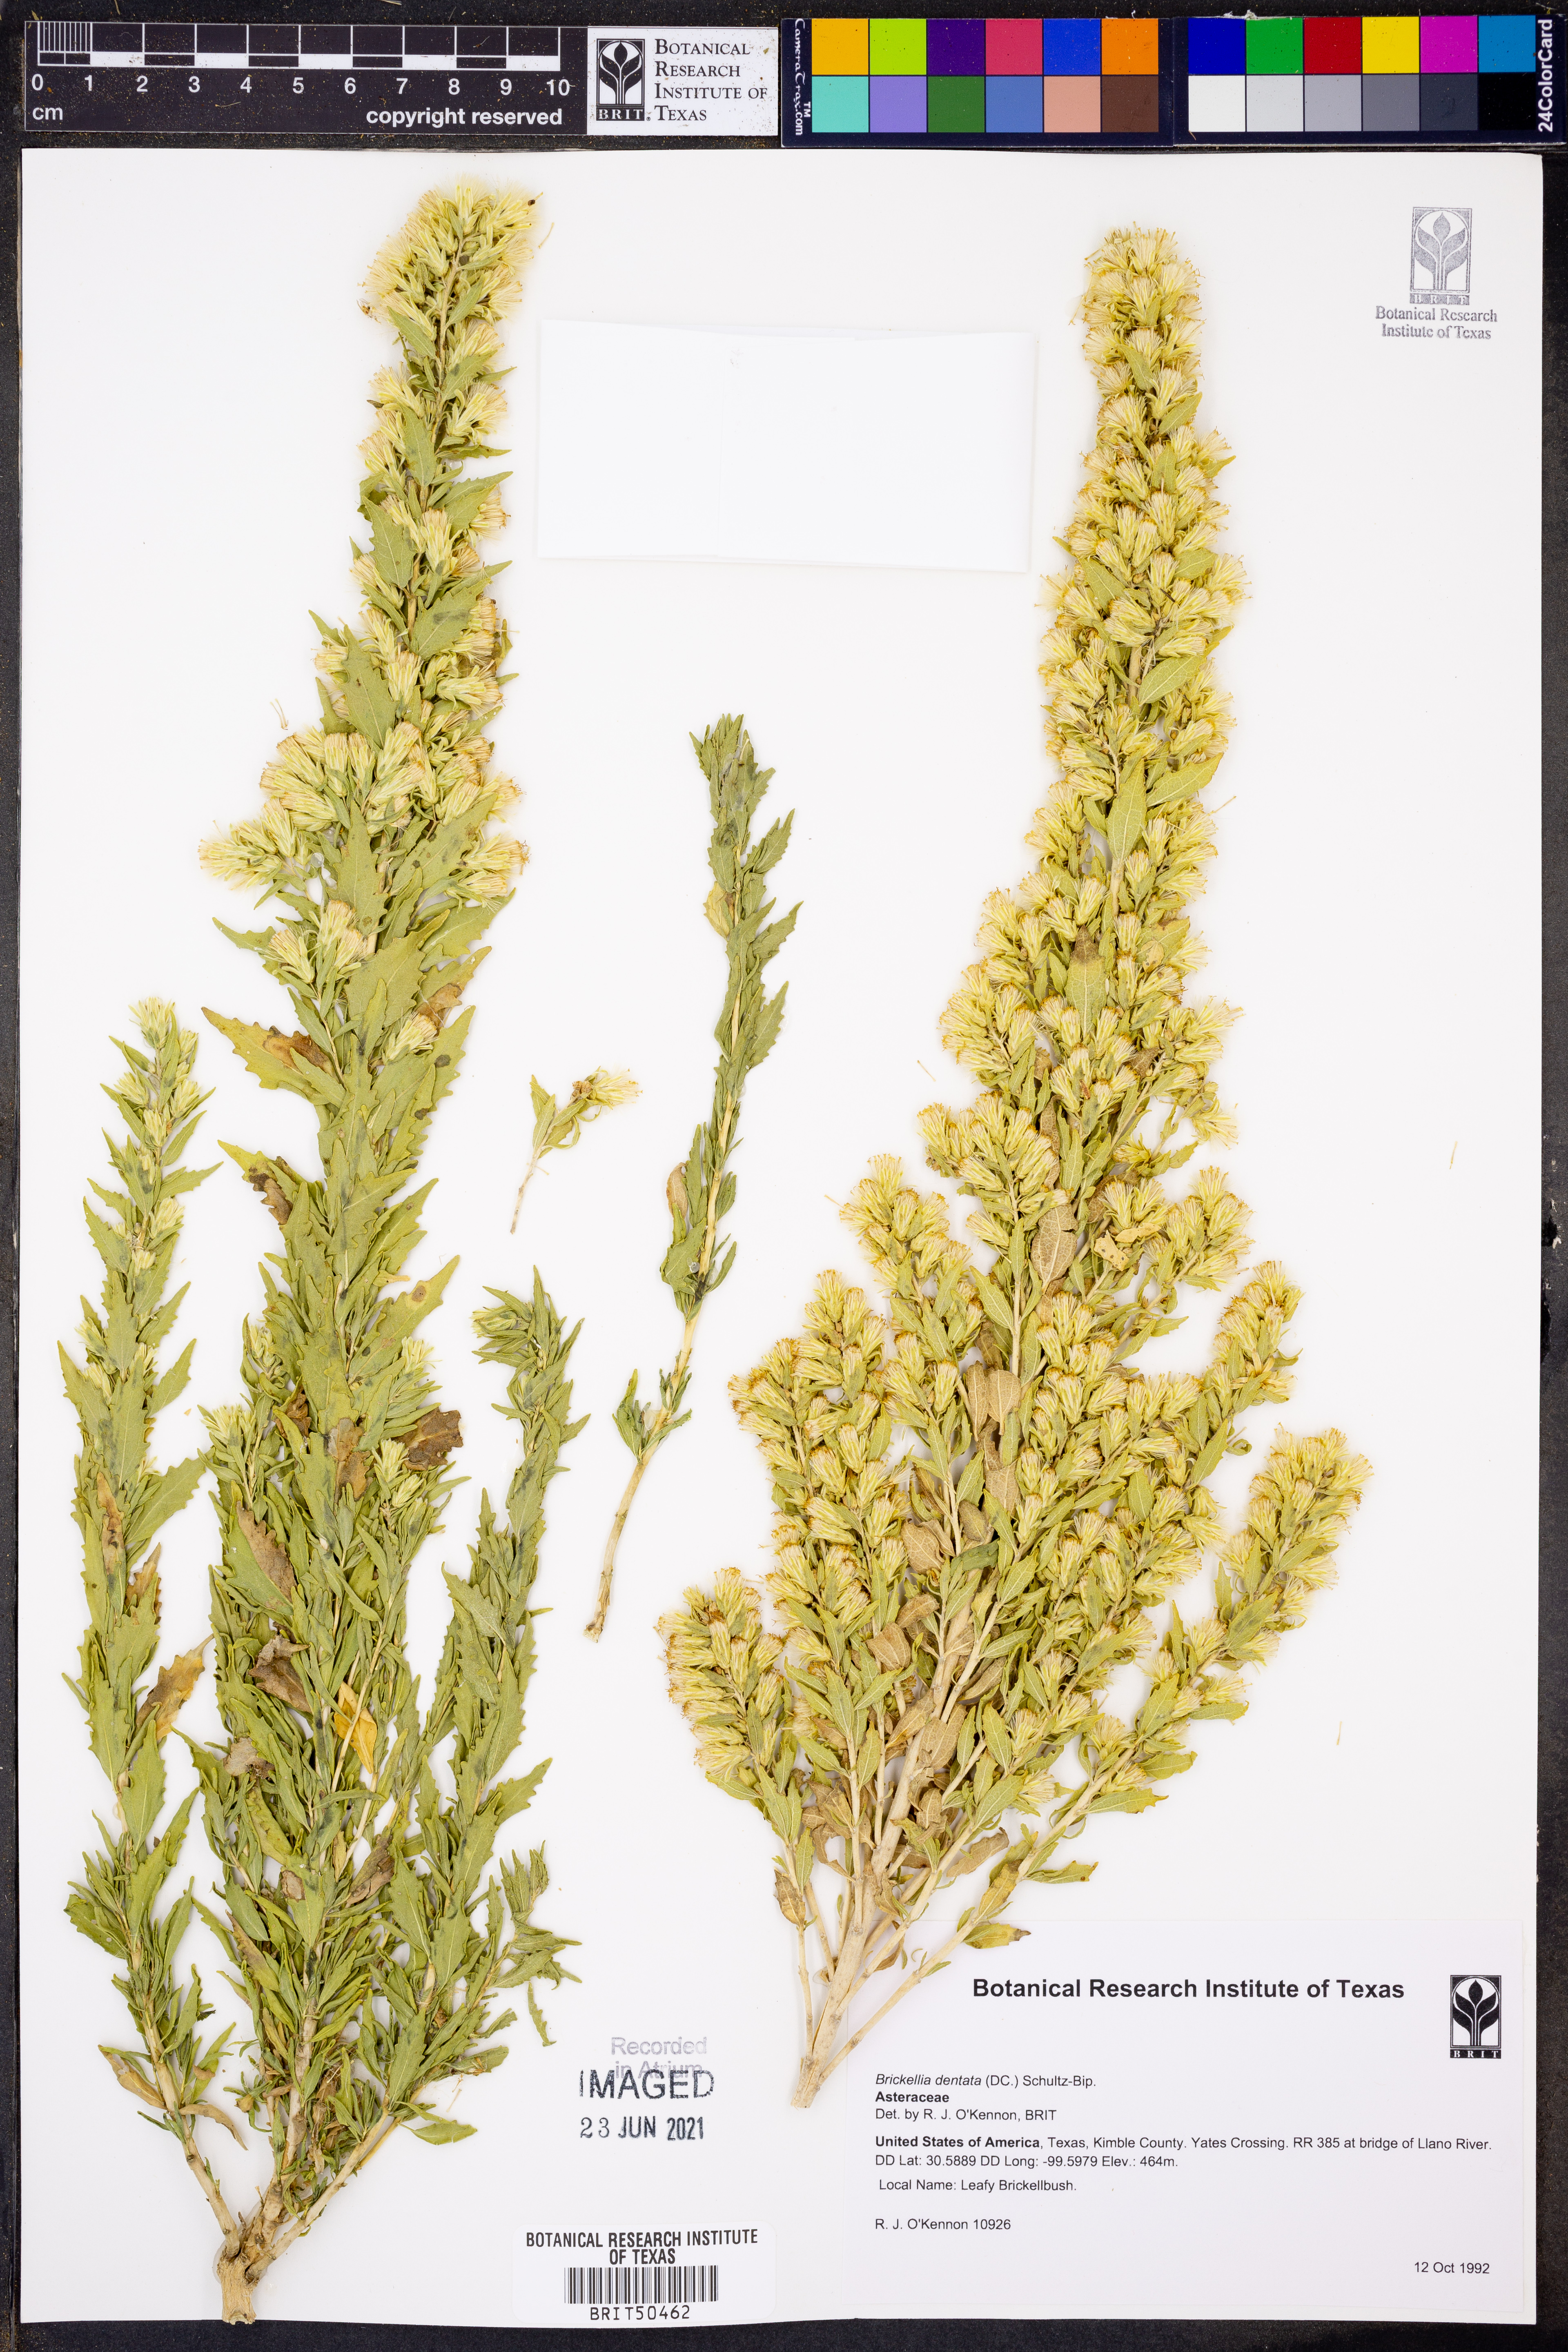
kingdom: Plantae
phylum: Tracheophyta
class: Magnoliopsida
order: Asterales
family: Asteraceae
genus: Brickellia
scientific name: Brickellia dentata
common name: Leafy brickellbush
